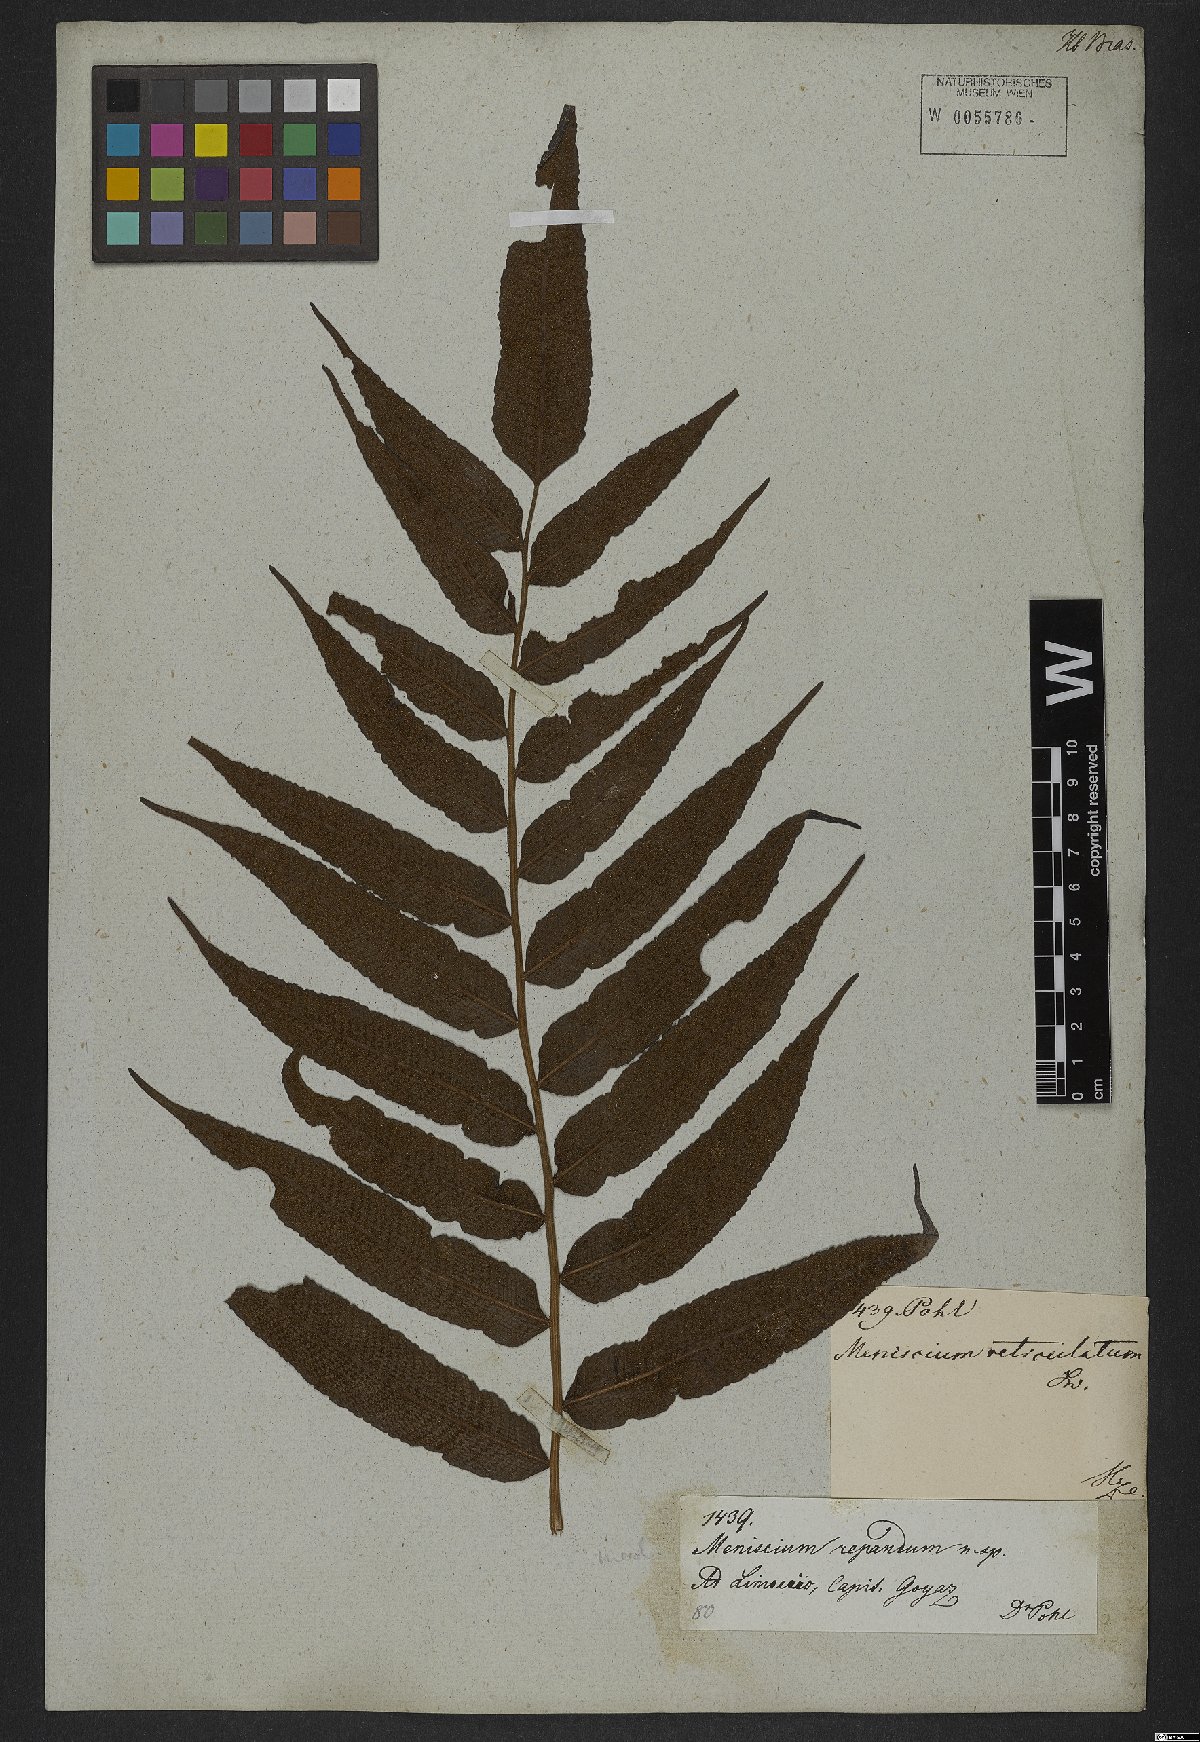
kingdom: Plantae
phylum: Tracheophyta
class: Polypodiopsida
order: Polypodiales
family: Thelypteridaceae
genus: Meniscium
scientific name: Meniscium reticulatum
